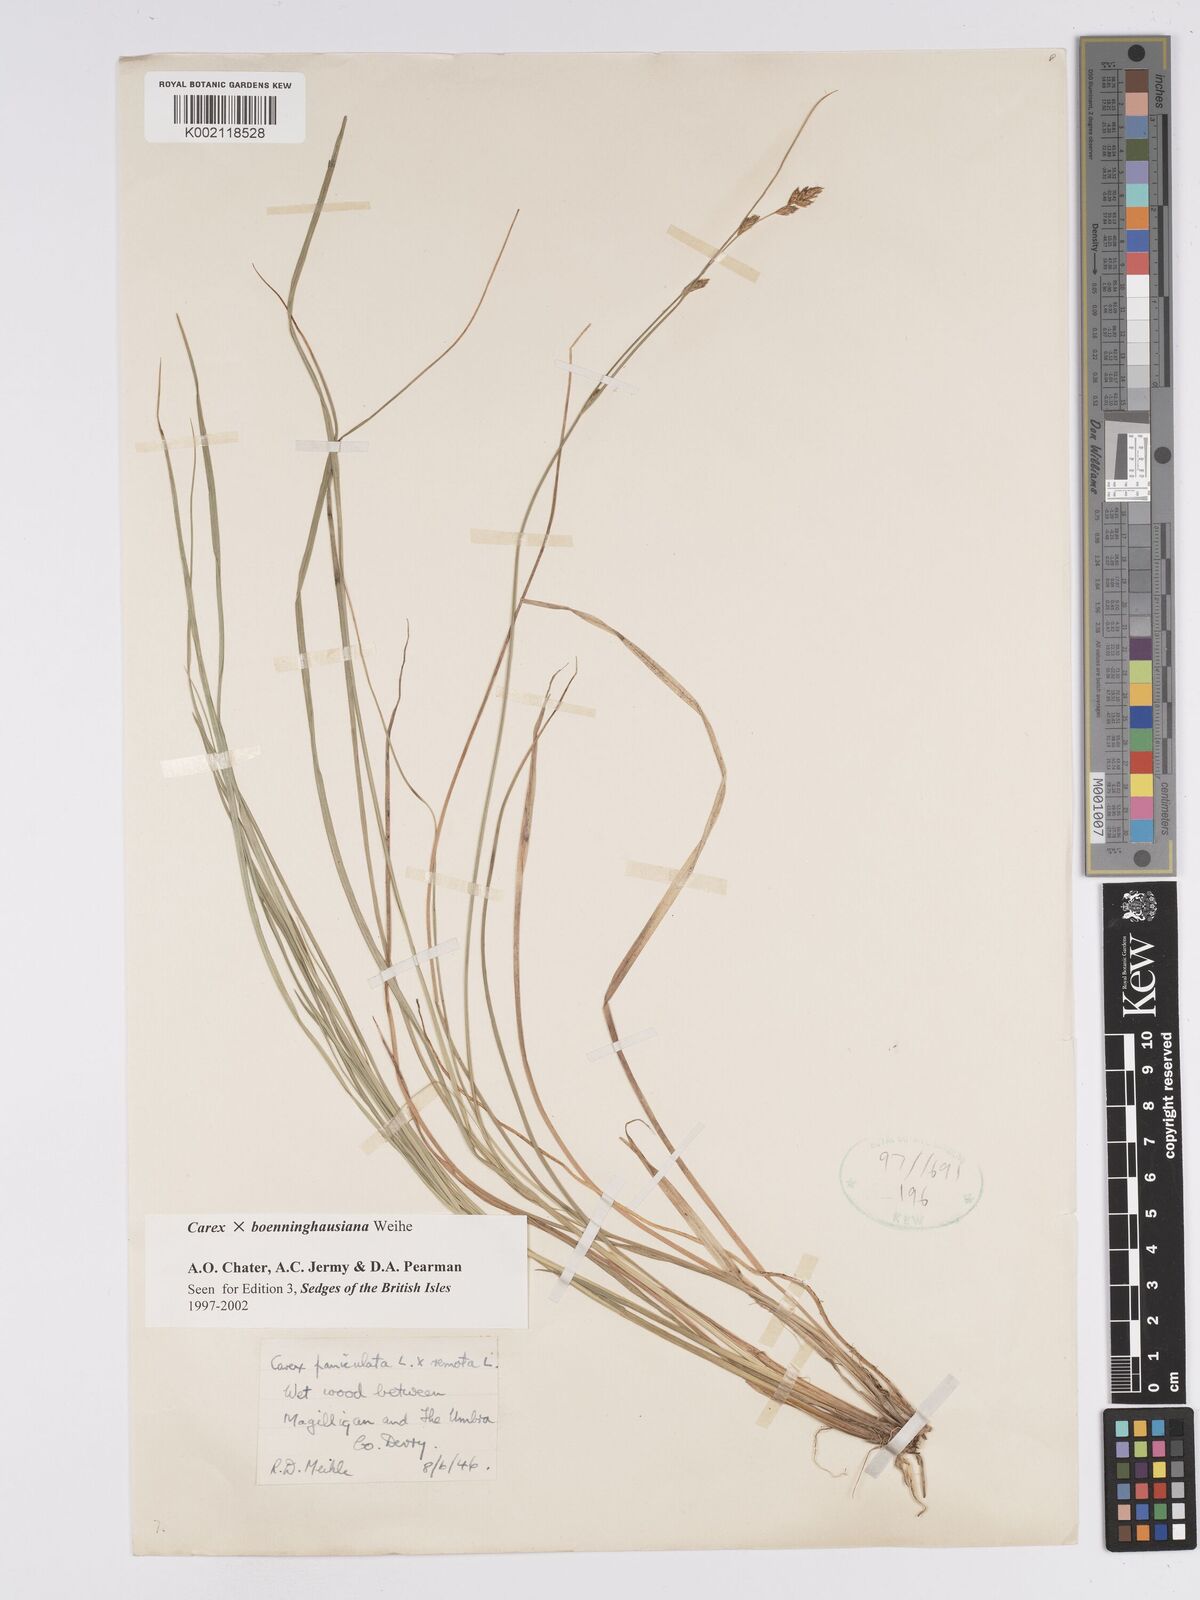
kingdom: Plantae
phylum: Tracheophyta
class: Liliopsida
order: Poales
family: Cyperaceae
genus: Carex
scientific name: Carex boenninghausiana
